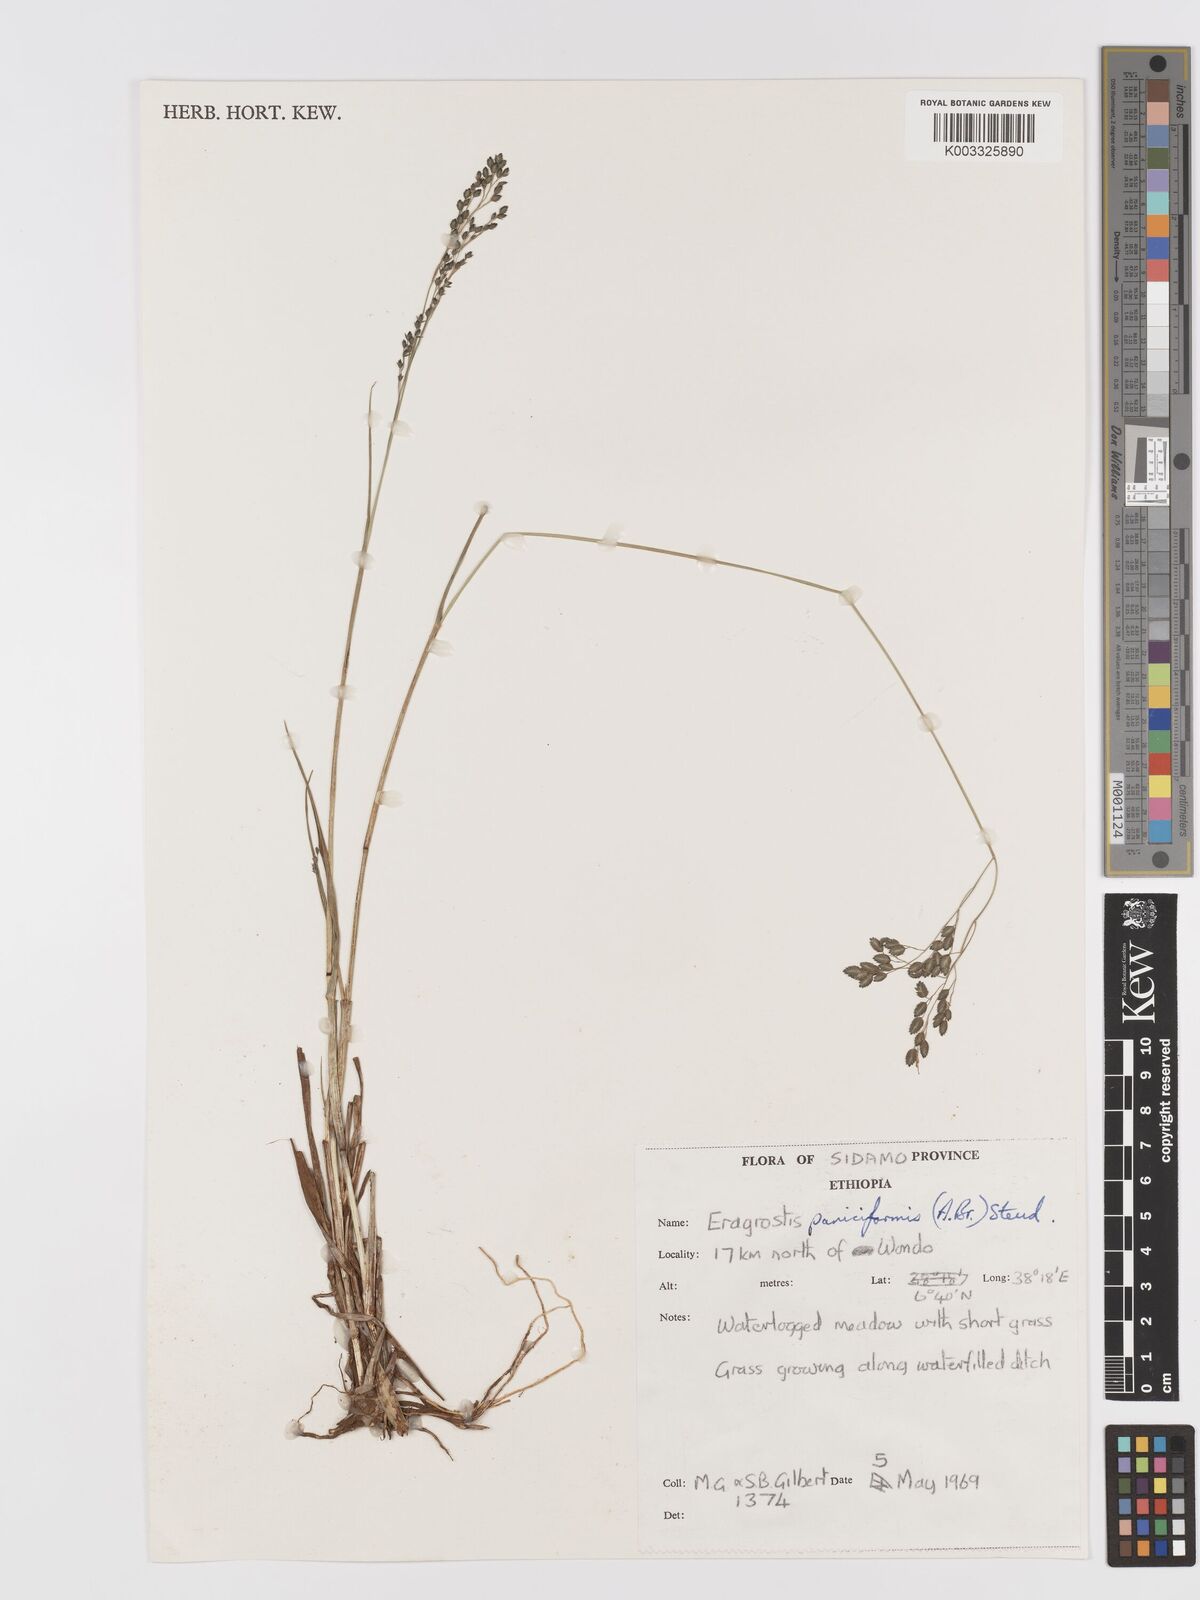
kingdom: Plantae
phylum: Tracheophyta
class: Liliopsida
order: Poales
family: Poaceae
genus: Eragrostis
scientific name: Eragrostis paniciformis
